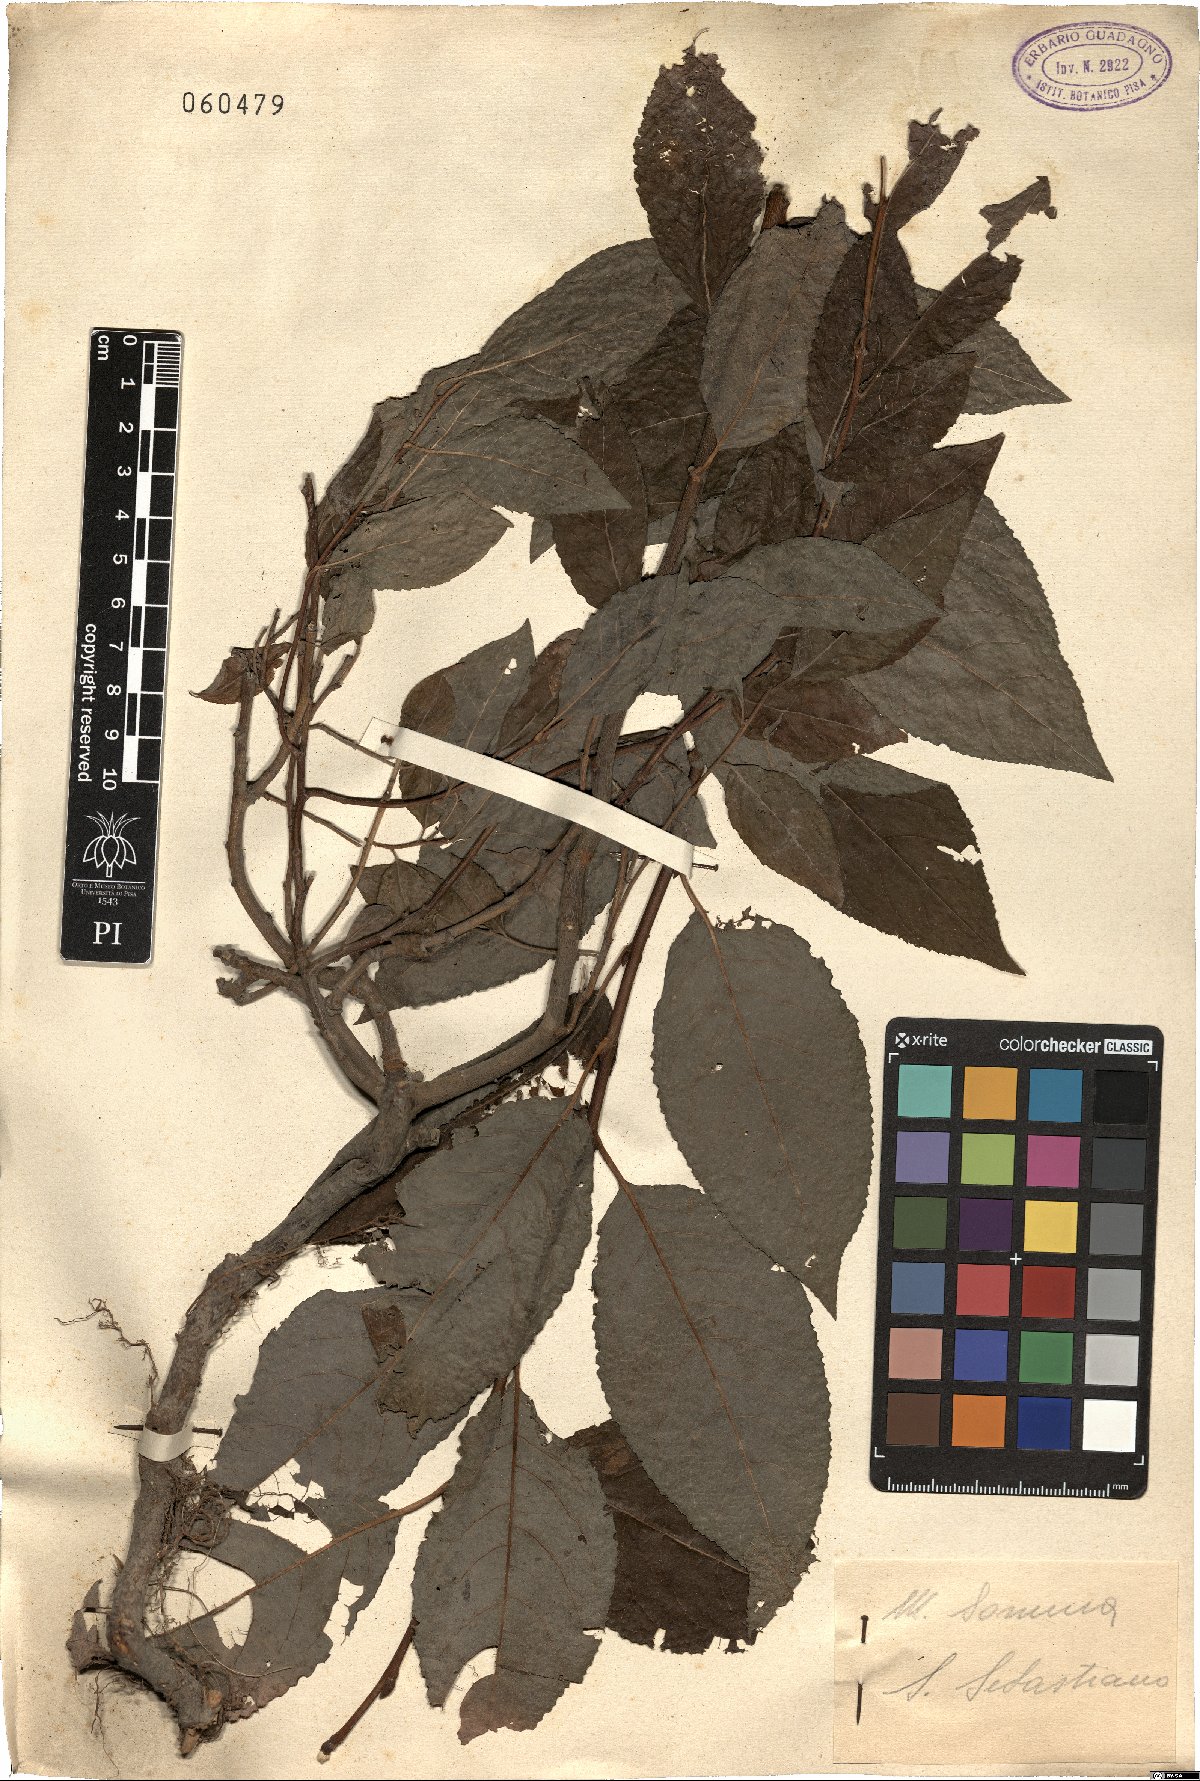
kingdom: Plantae
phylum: Tracheophyta
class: Magnoliopsida
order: Rosales
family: Rosaceae
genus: Prunus
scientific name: Prunus
